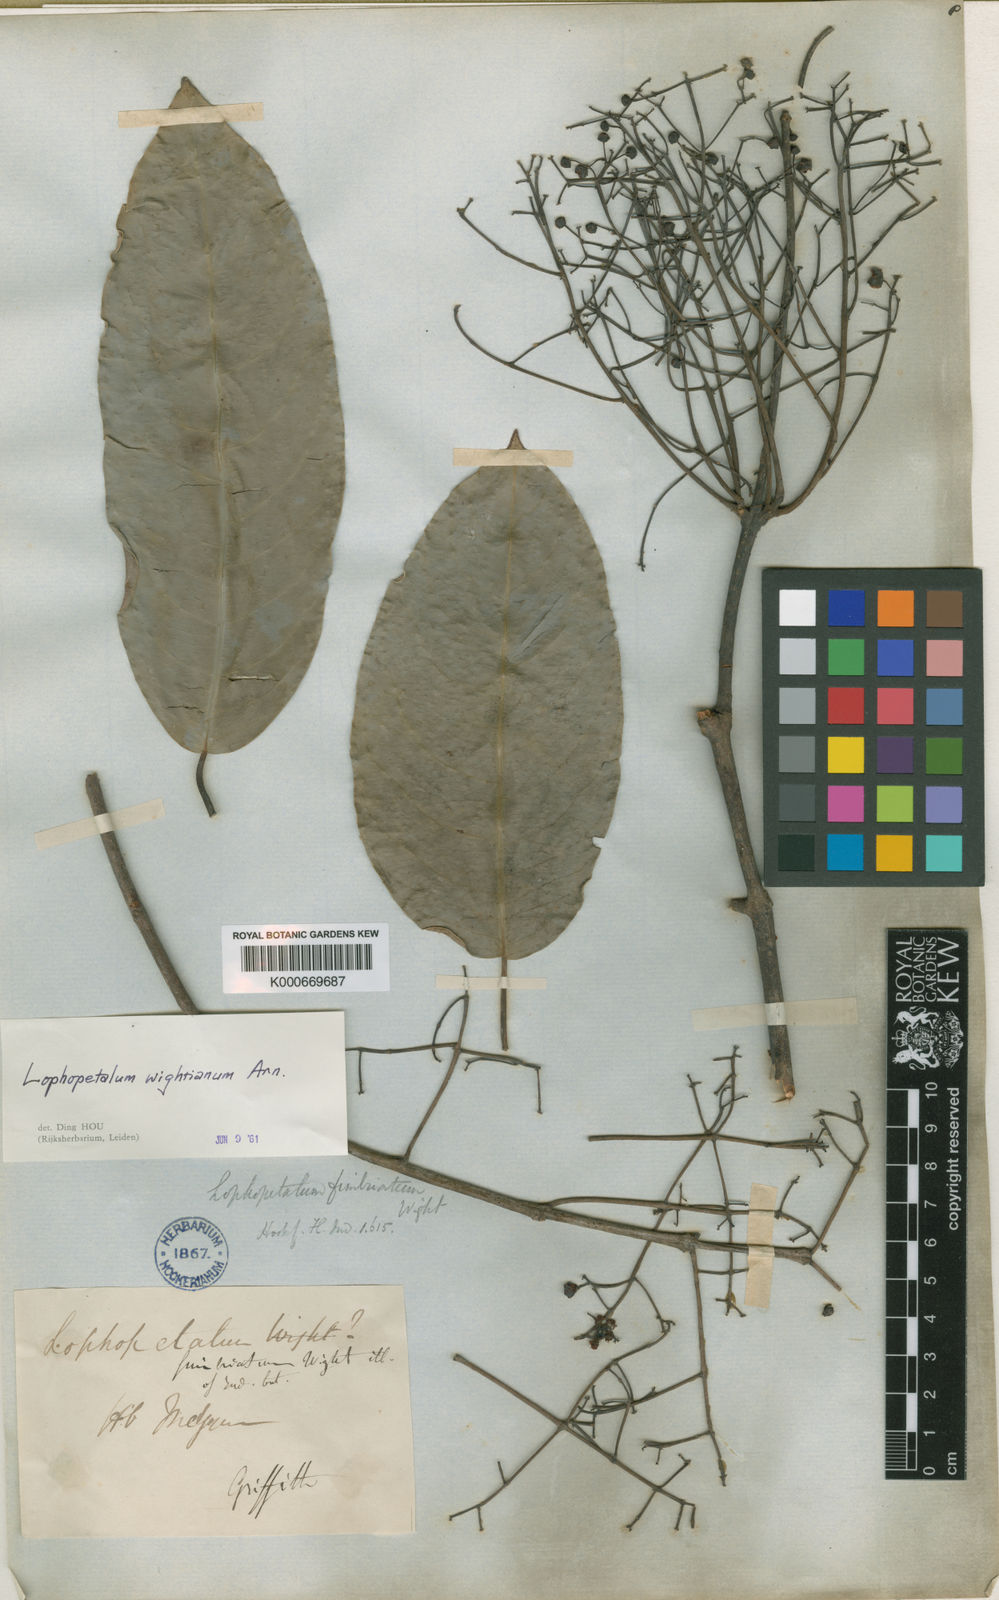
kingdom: Plantae
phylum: Tracheophyta
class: Magnoliopsida
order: Celastrales
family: Celastraceae
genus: Lophopetalum
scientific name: Lophopetalum wightianum
